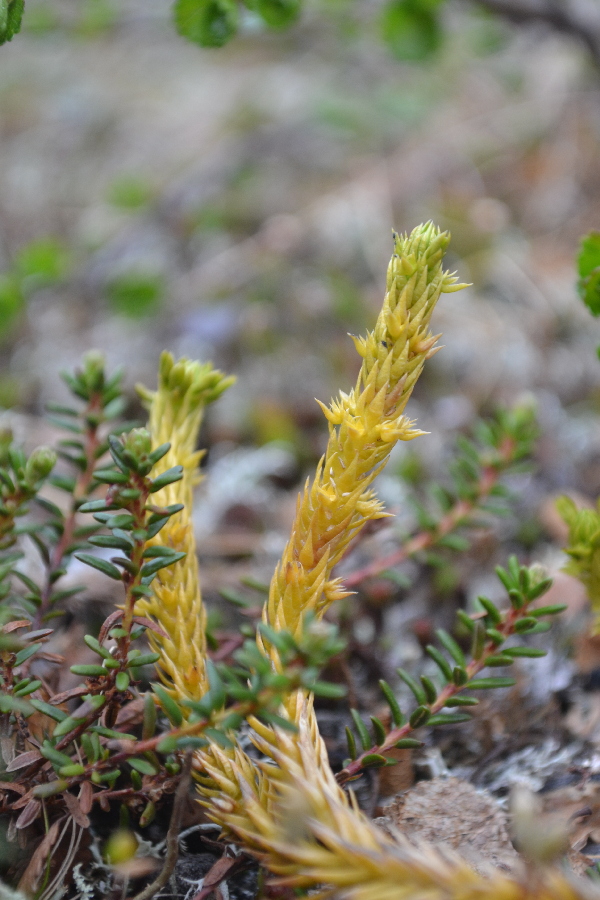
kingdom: Plantae
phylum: Tracheophyta
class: Lycopodiopsida
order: Lycopodiales
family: Lycopodiaceae
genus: Huperzia
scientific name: Huperzia selago
